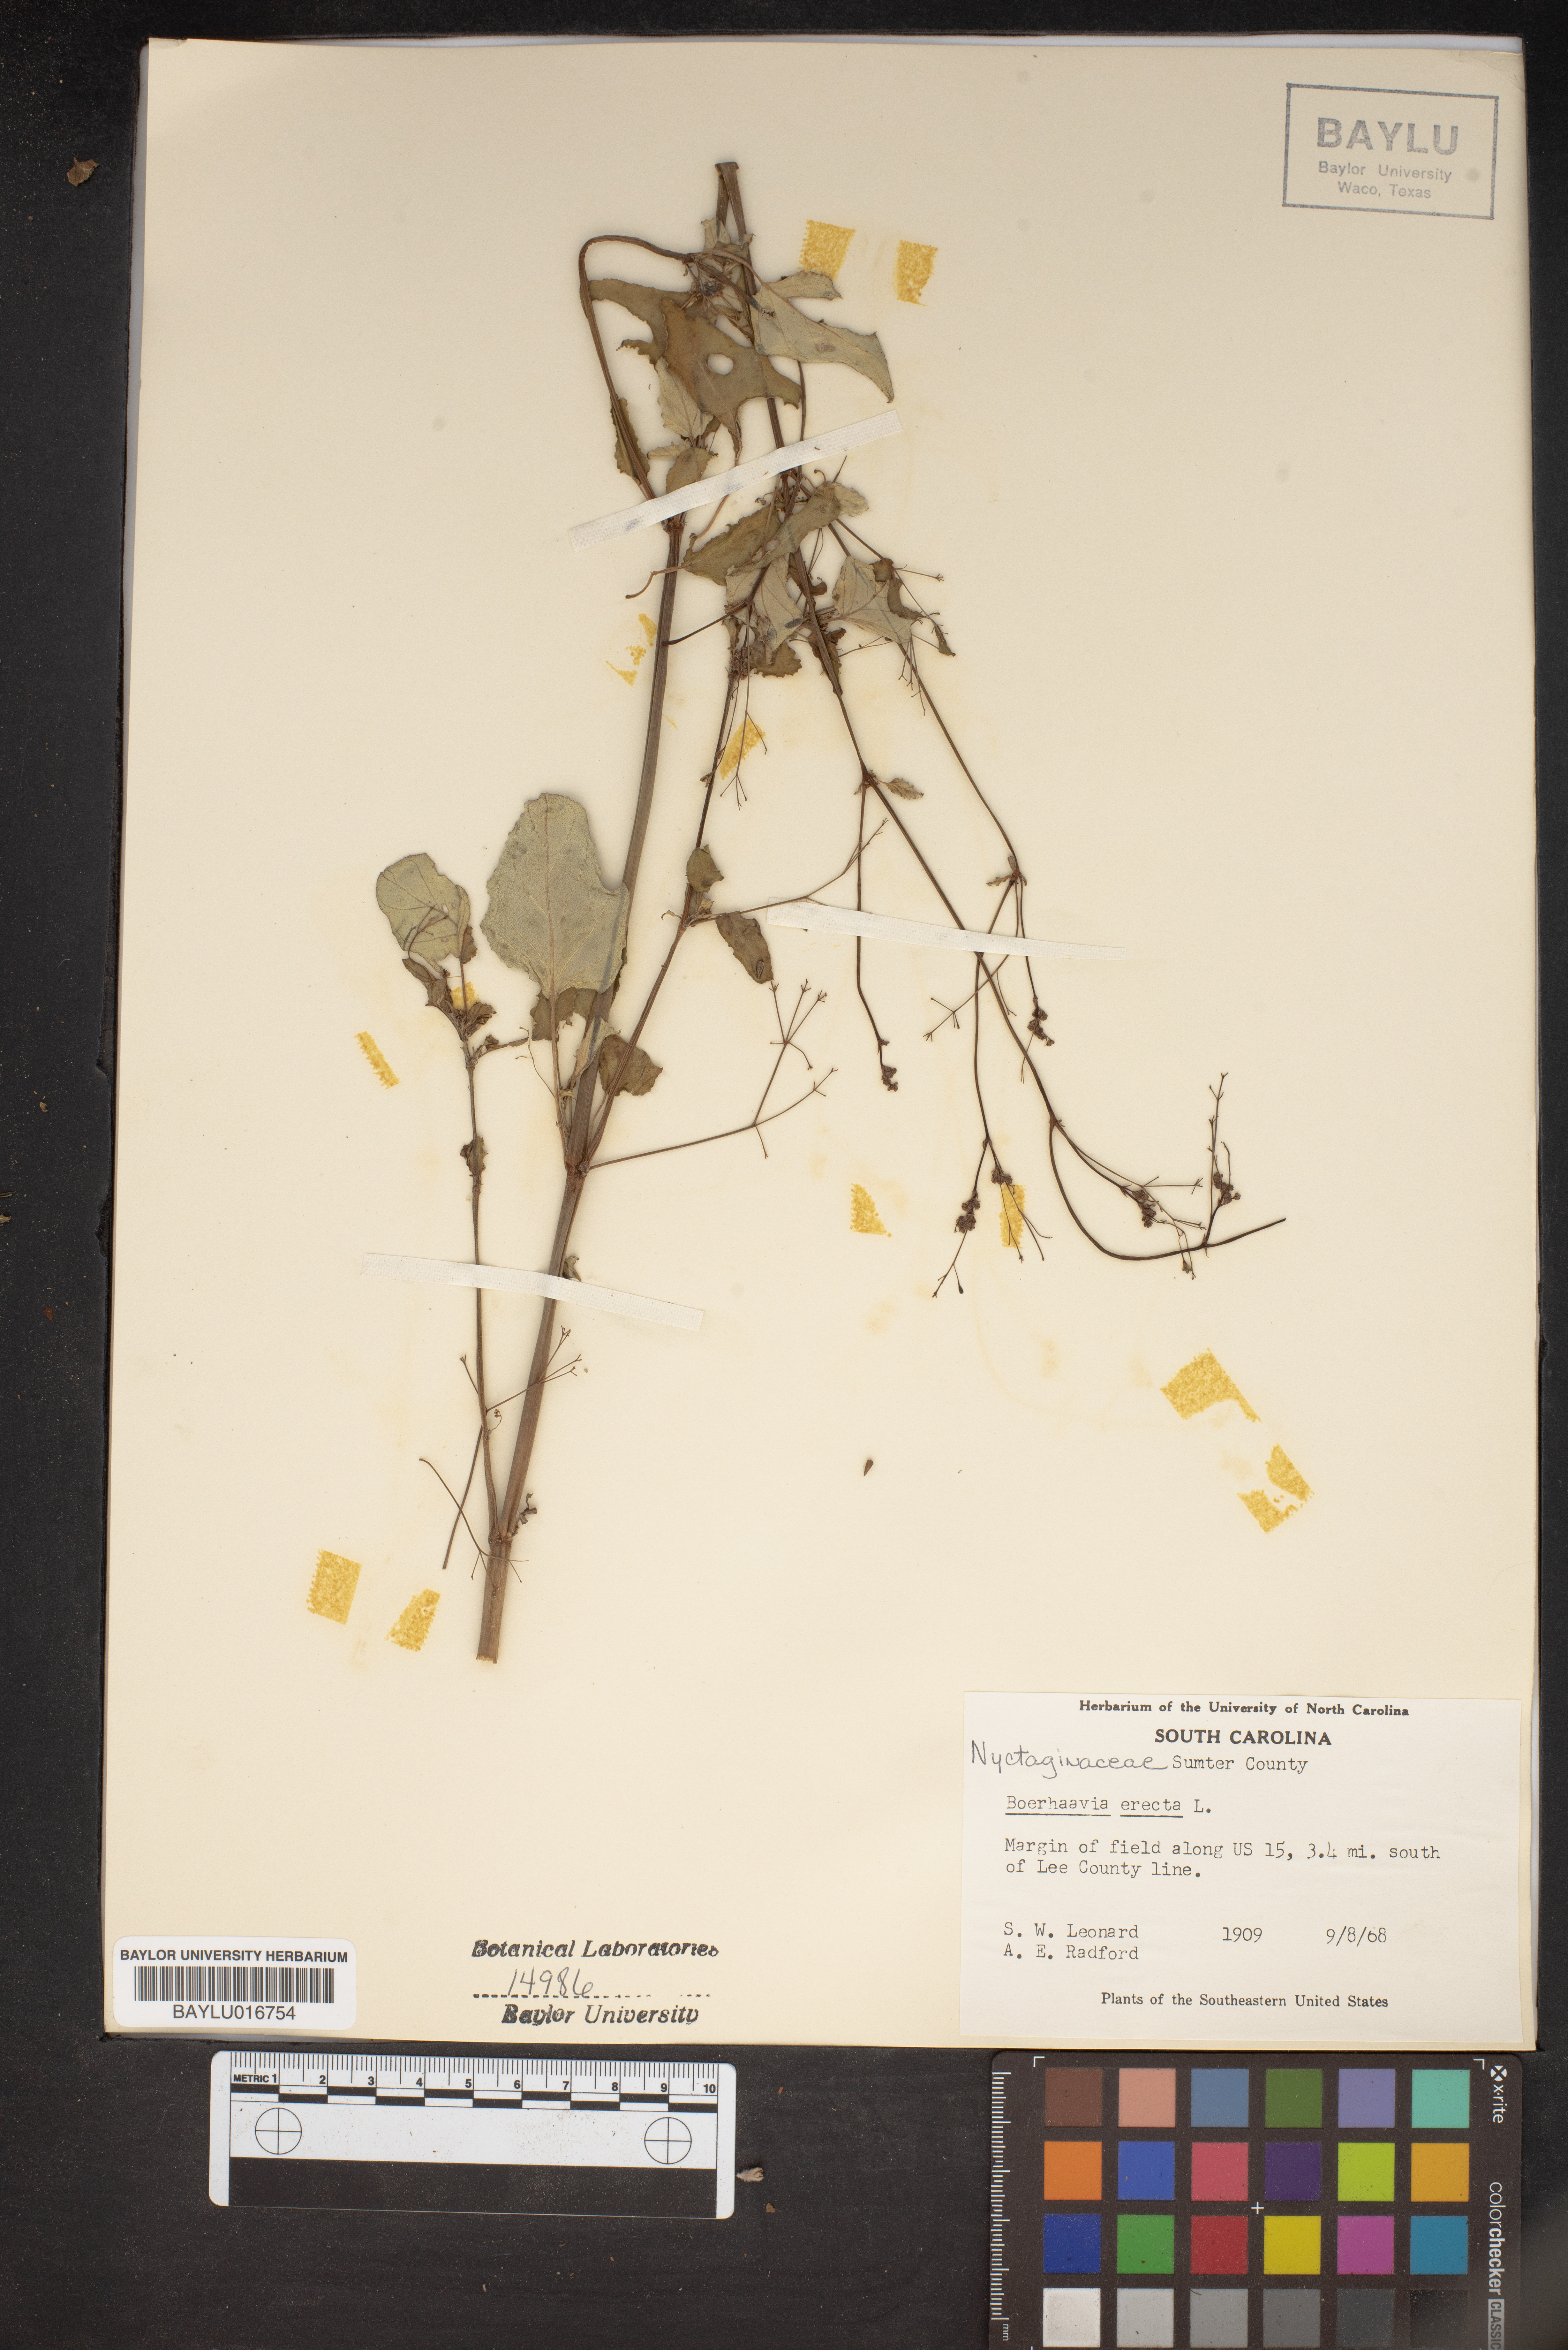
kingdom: Plantae
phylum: Tracheophyta
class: Magnoliopsida
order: Caryophyllales
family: Nyctaginaceae
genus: Boerhavia
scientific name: Boerhavia erecta
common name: Erect spiderling
